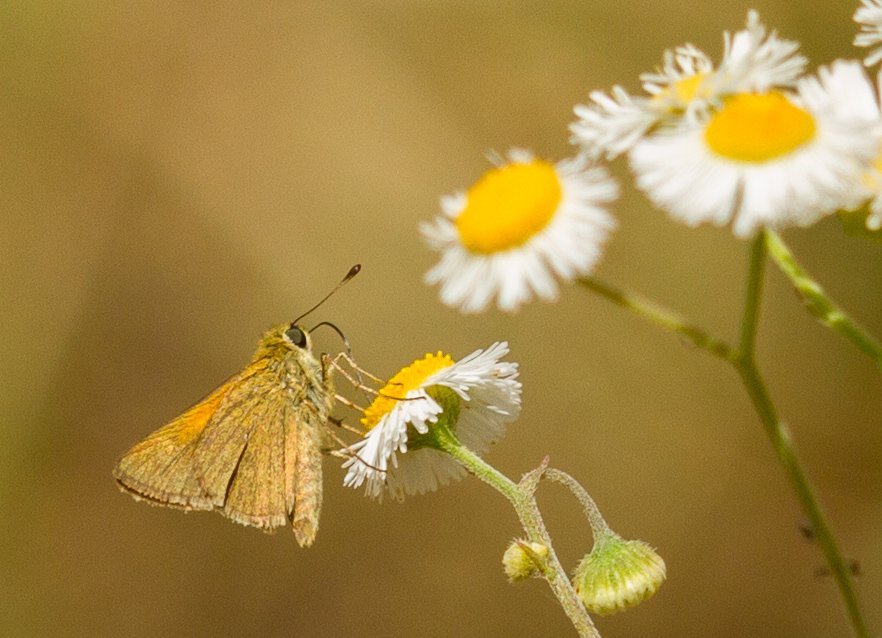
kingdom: Animalia
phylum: Arthropoda
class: Insecta
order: Lepidoptera
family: Hesperiidae
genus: Polites
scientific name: Polites themistocles
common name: Tawny-edged Skipper
